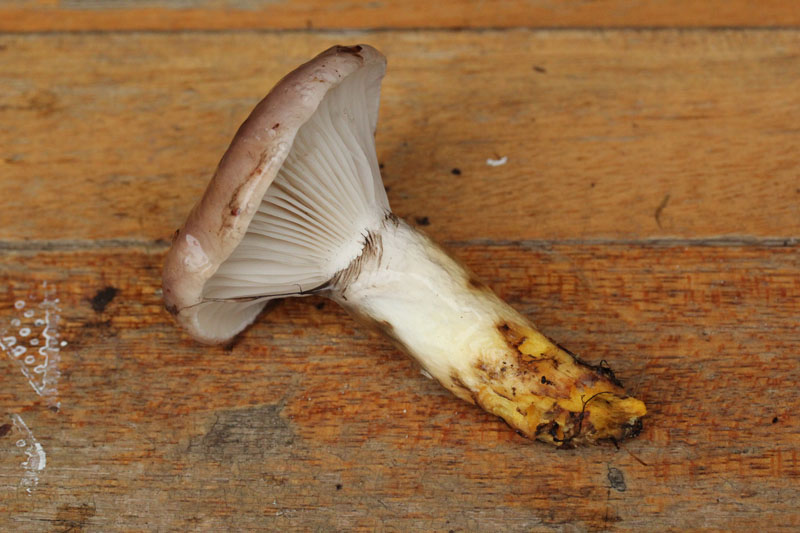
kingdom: Fungi
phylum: Basidiomycota
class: Agaricomycetes
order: Boletales
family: Gomphidiaceae
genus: Gomphidius
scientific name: Gomphidius glutinosus
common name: grå slimslør
